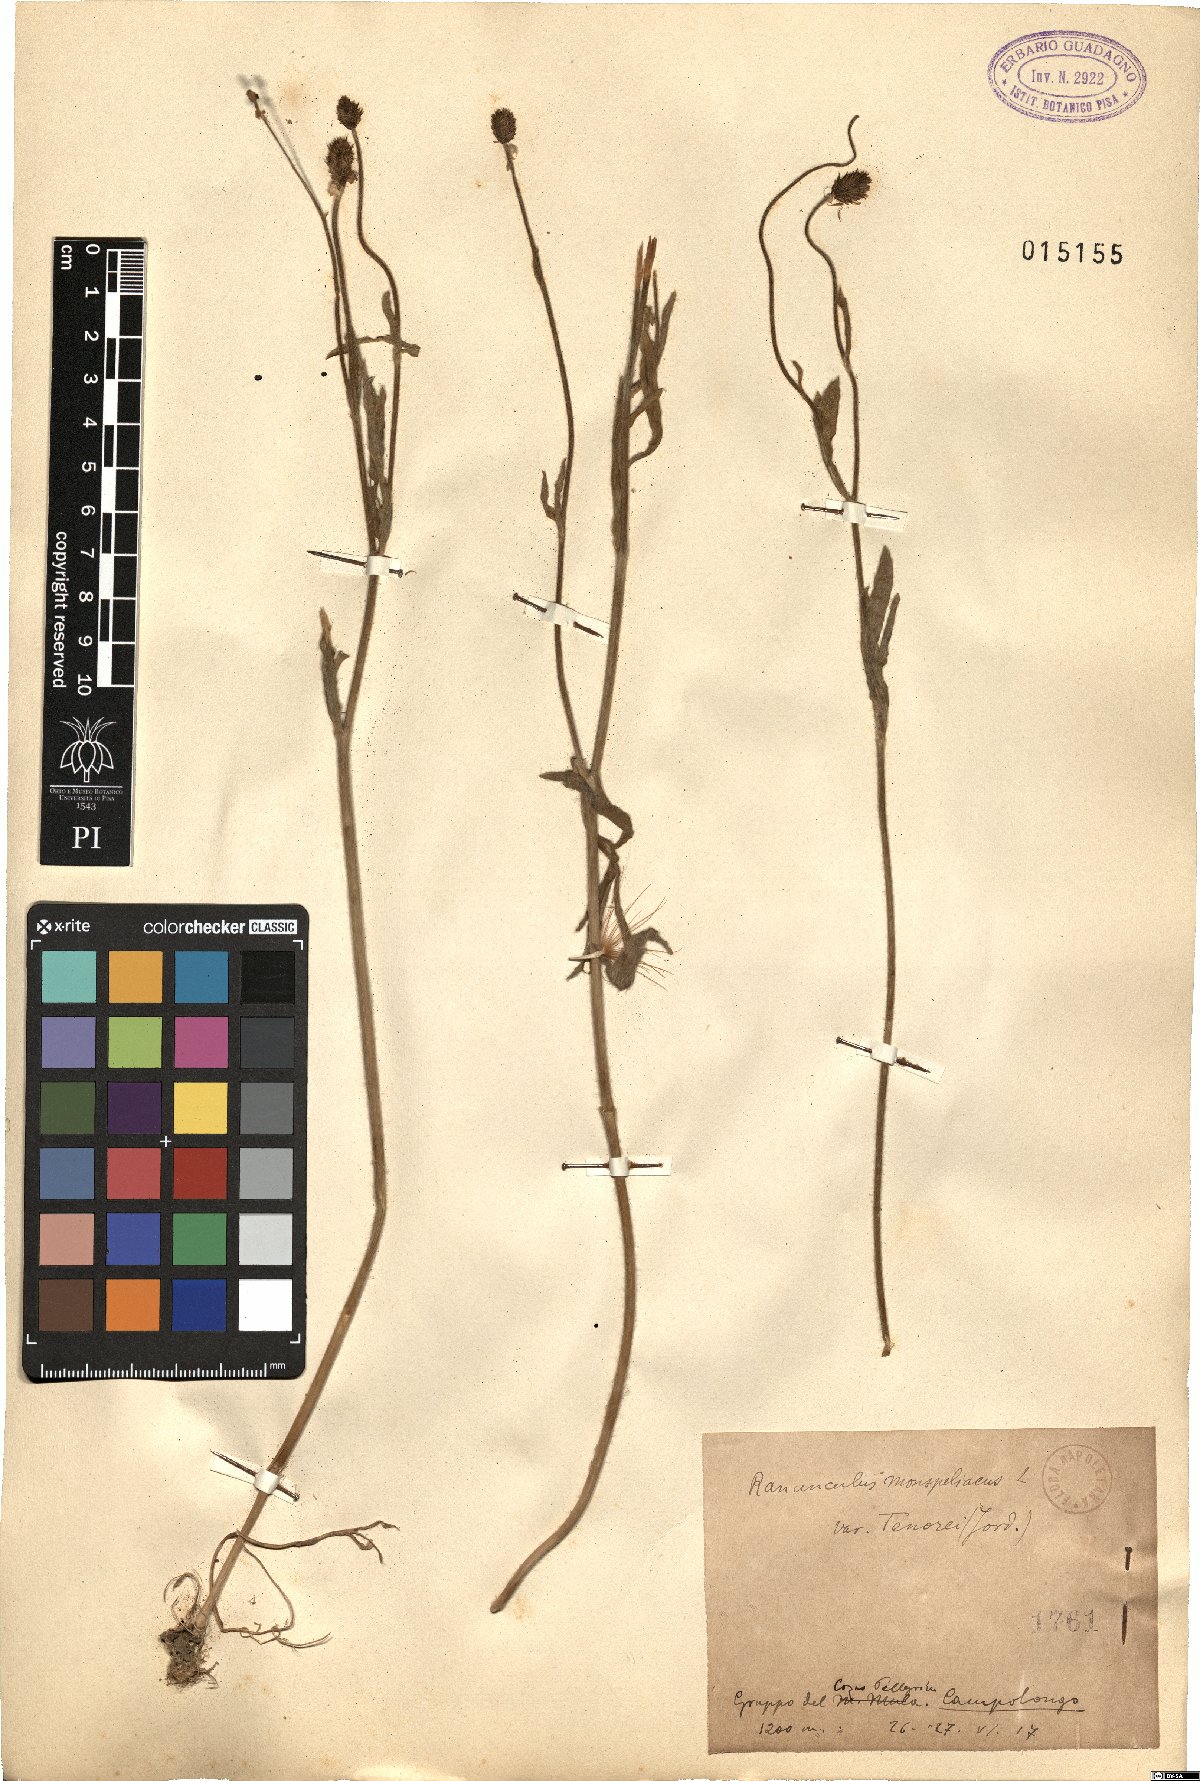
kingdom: Plantae
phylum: Tracheophyta
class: Magnoliopsida
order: Ranunculales
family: Ranunculaceae
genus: Ranunculus
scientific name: Ranunculus monspeliacus
